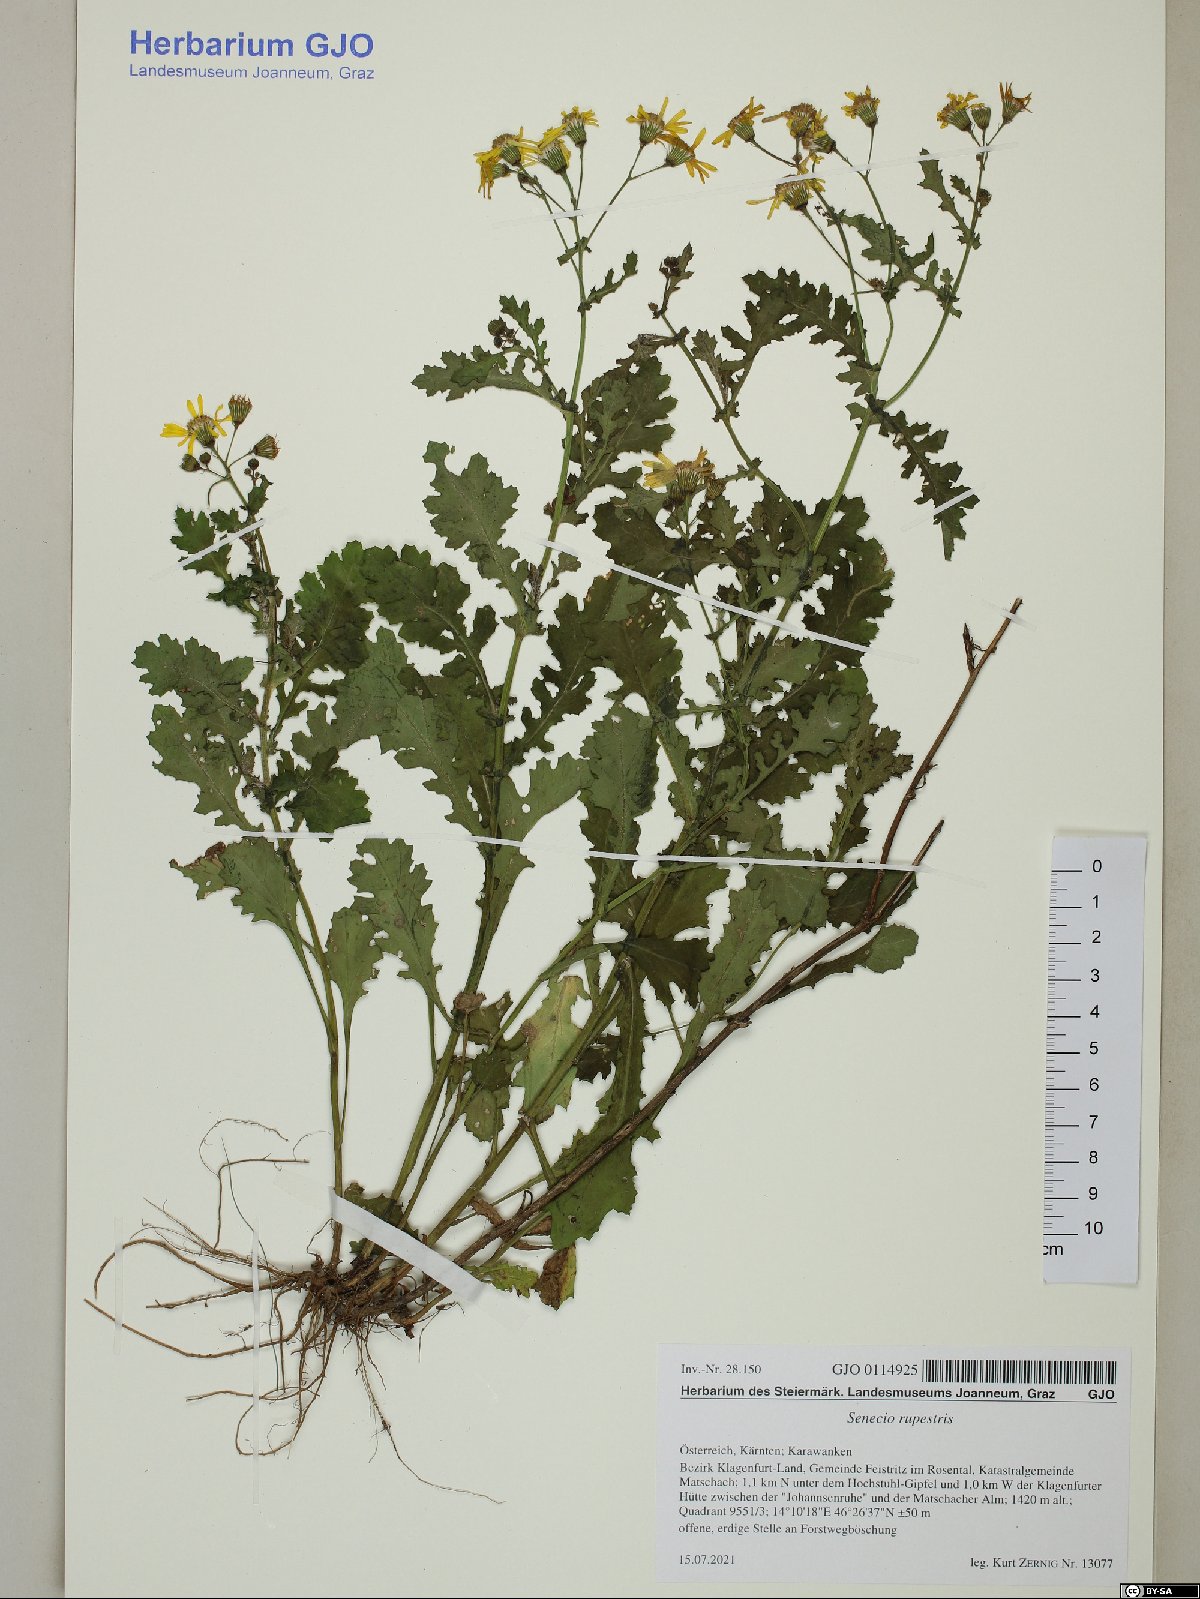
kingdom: Plantae
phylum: Tracheophyta
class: Magnoliopsida
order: Asterales
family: Asteraceae
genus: Senecio
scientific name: Senecio rupestris
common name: Rock ragwort
